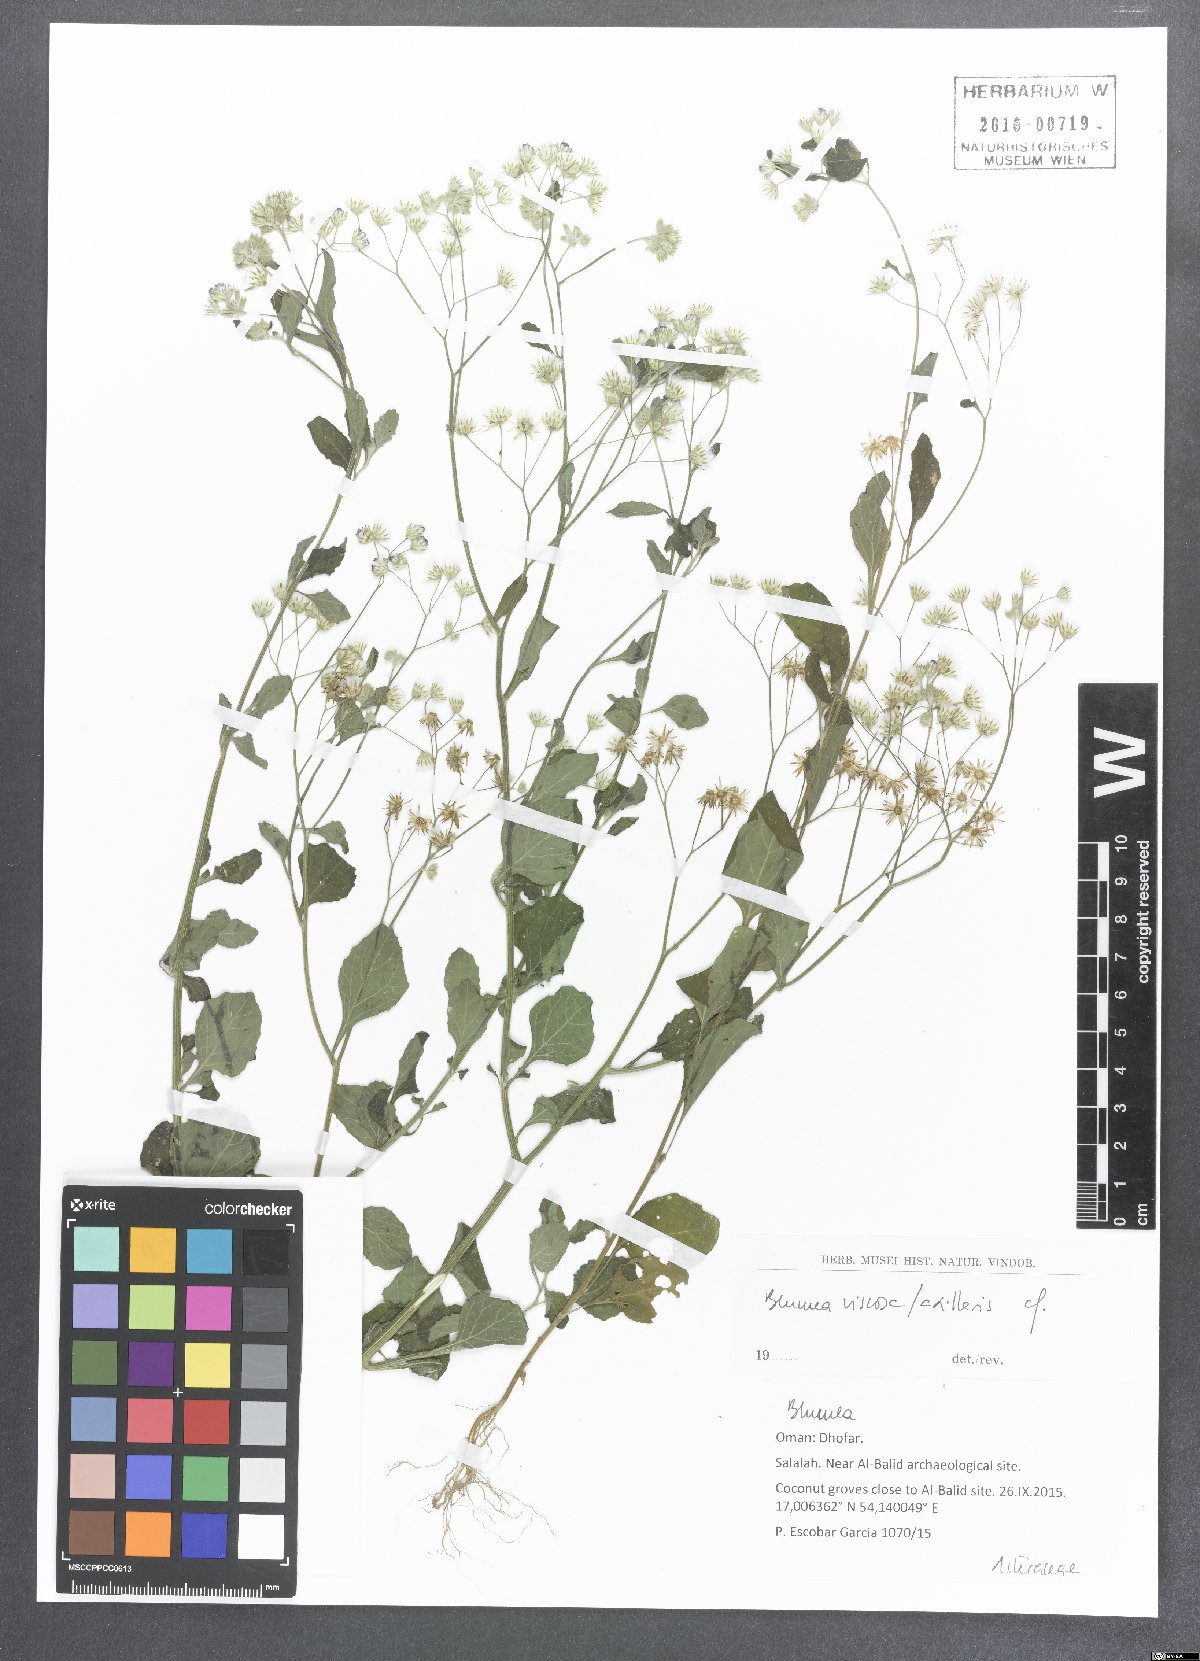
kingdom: Plantae
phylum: Tracheophyta
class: Magnoliopsida
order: Asterales
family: Asteraceae
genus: Pseudoconyza
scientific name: Pseudoconyza viscosa
